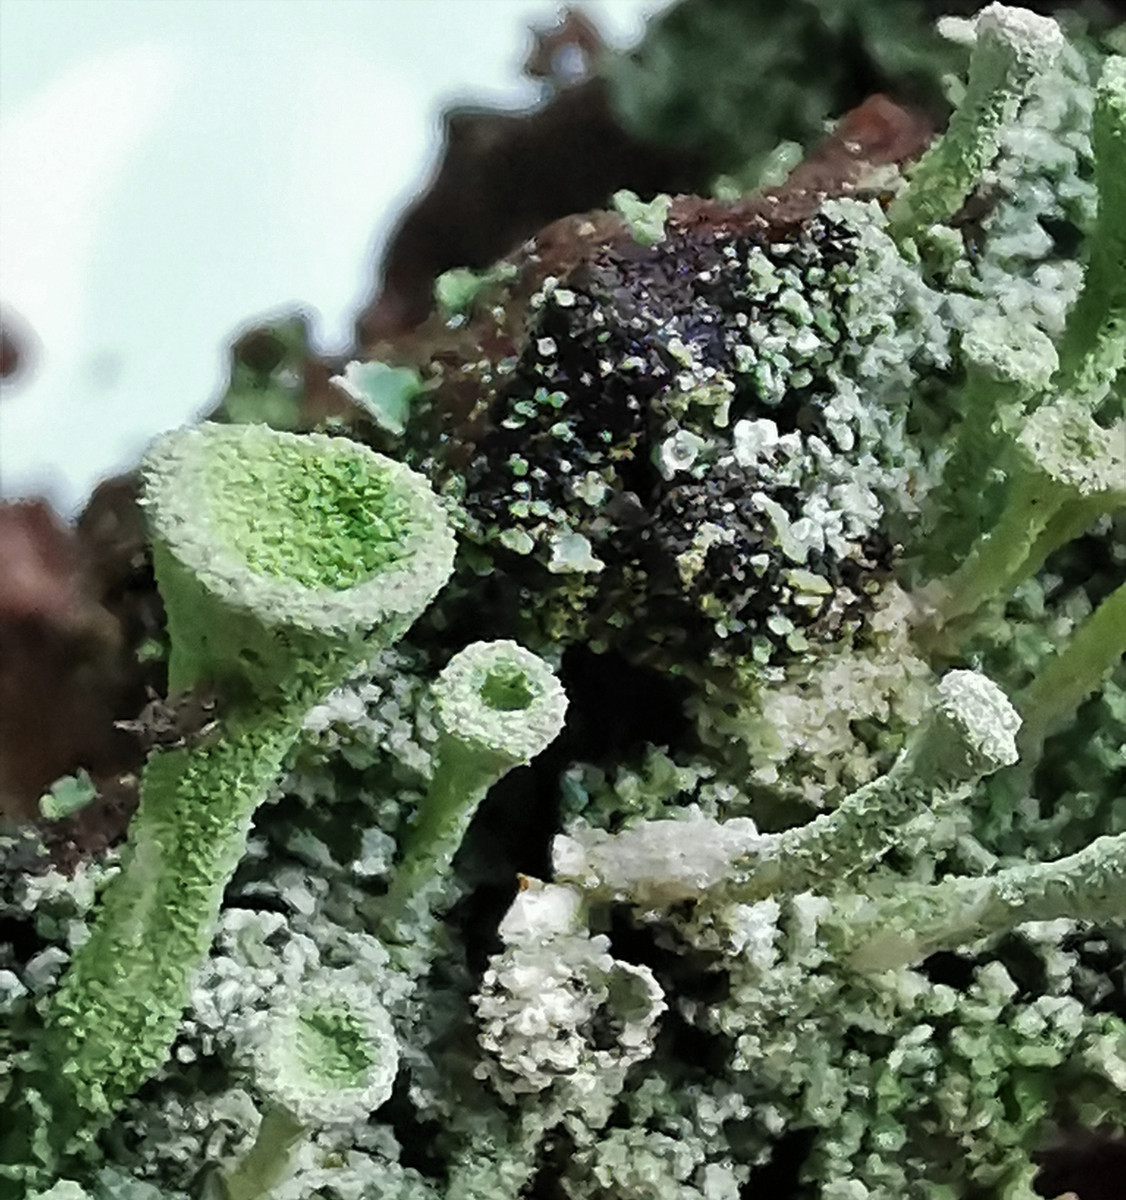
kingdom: Fungi
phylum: Ascomycota
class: Lecanoromycetes
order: Lecanorales
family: Cladoniaceae
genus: Cladonia
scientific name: Cladonia
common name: brungrøn bægerlav
